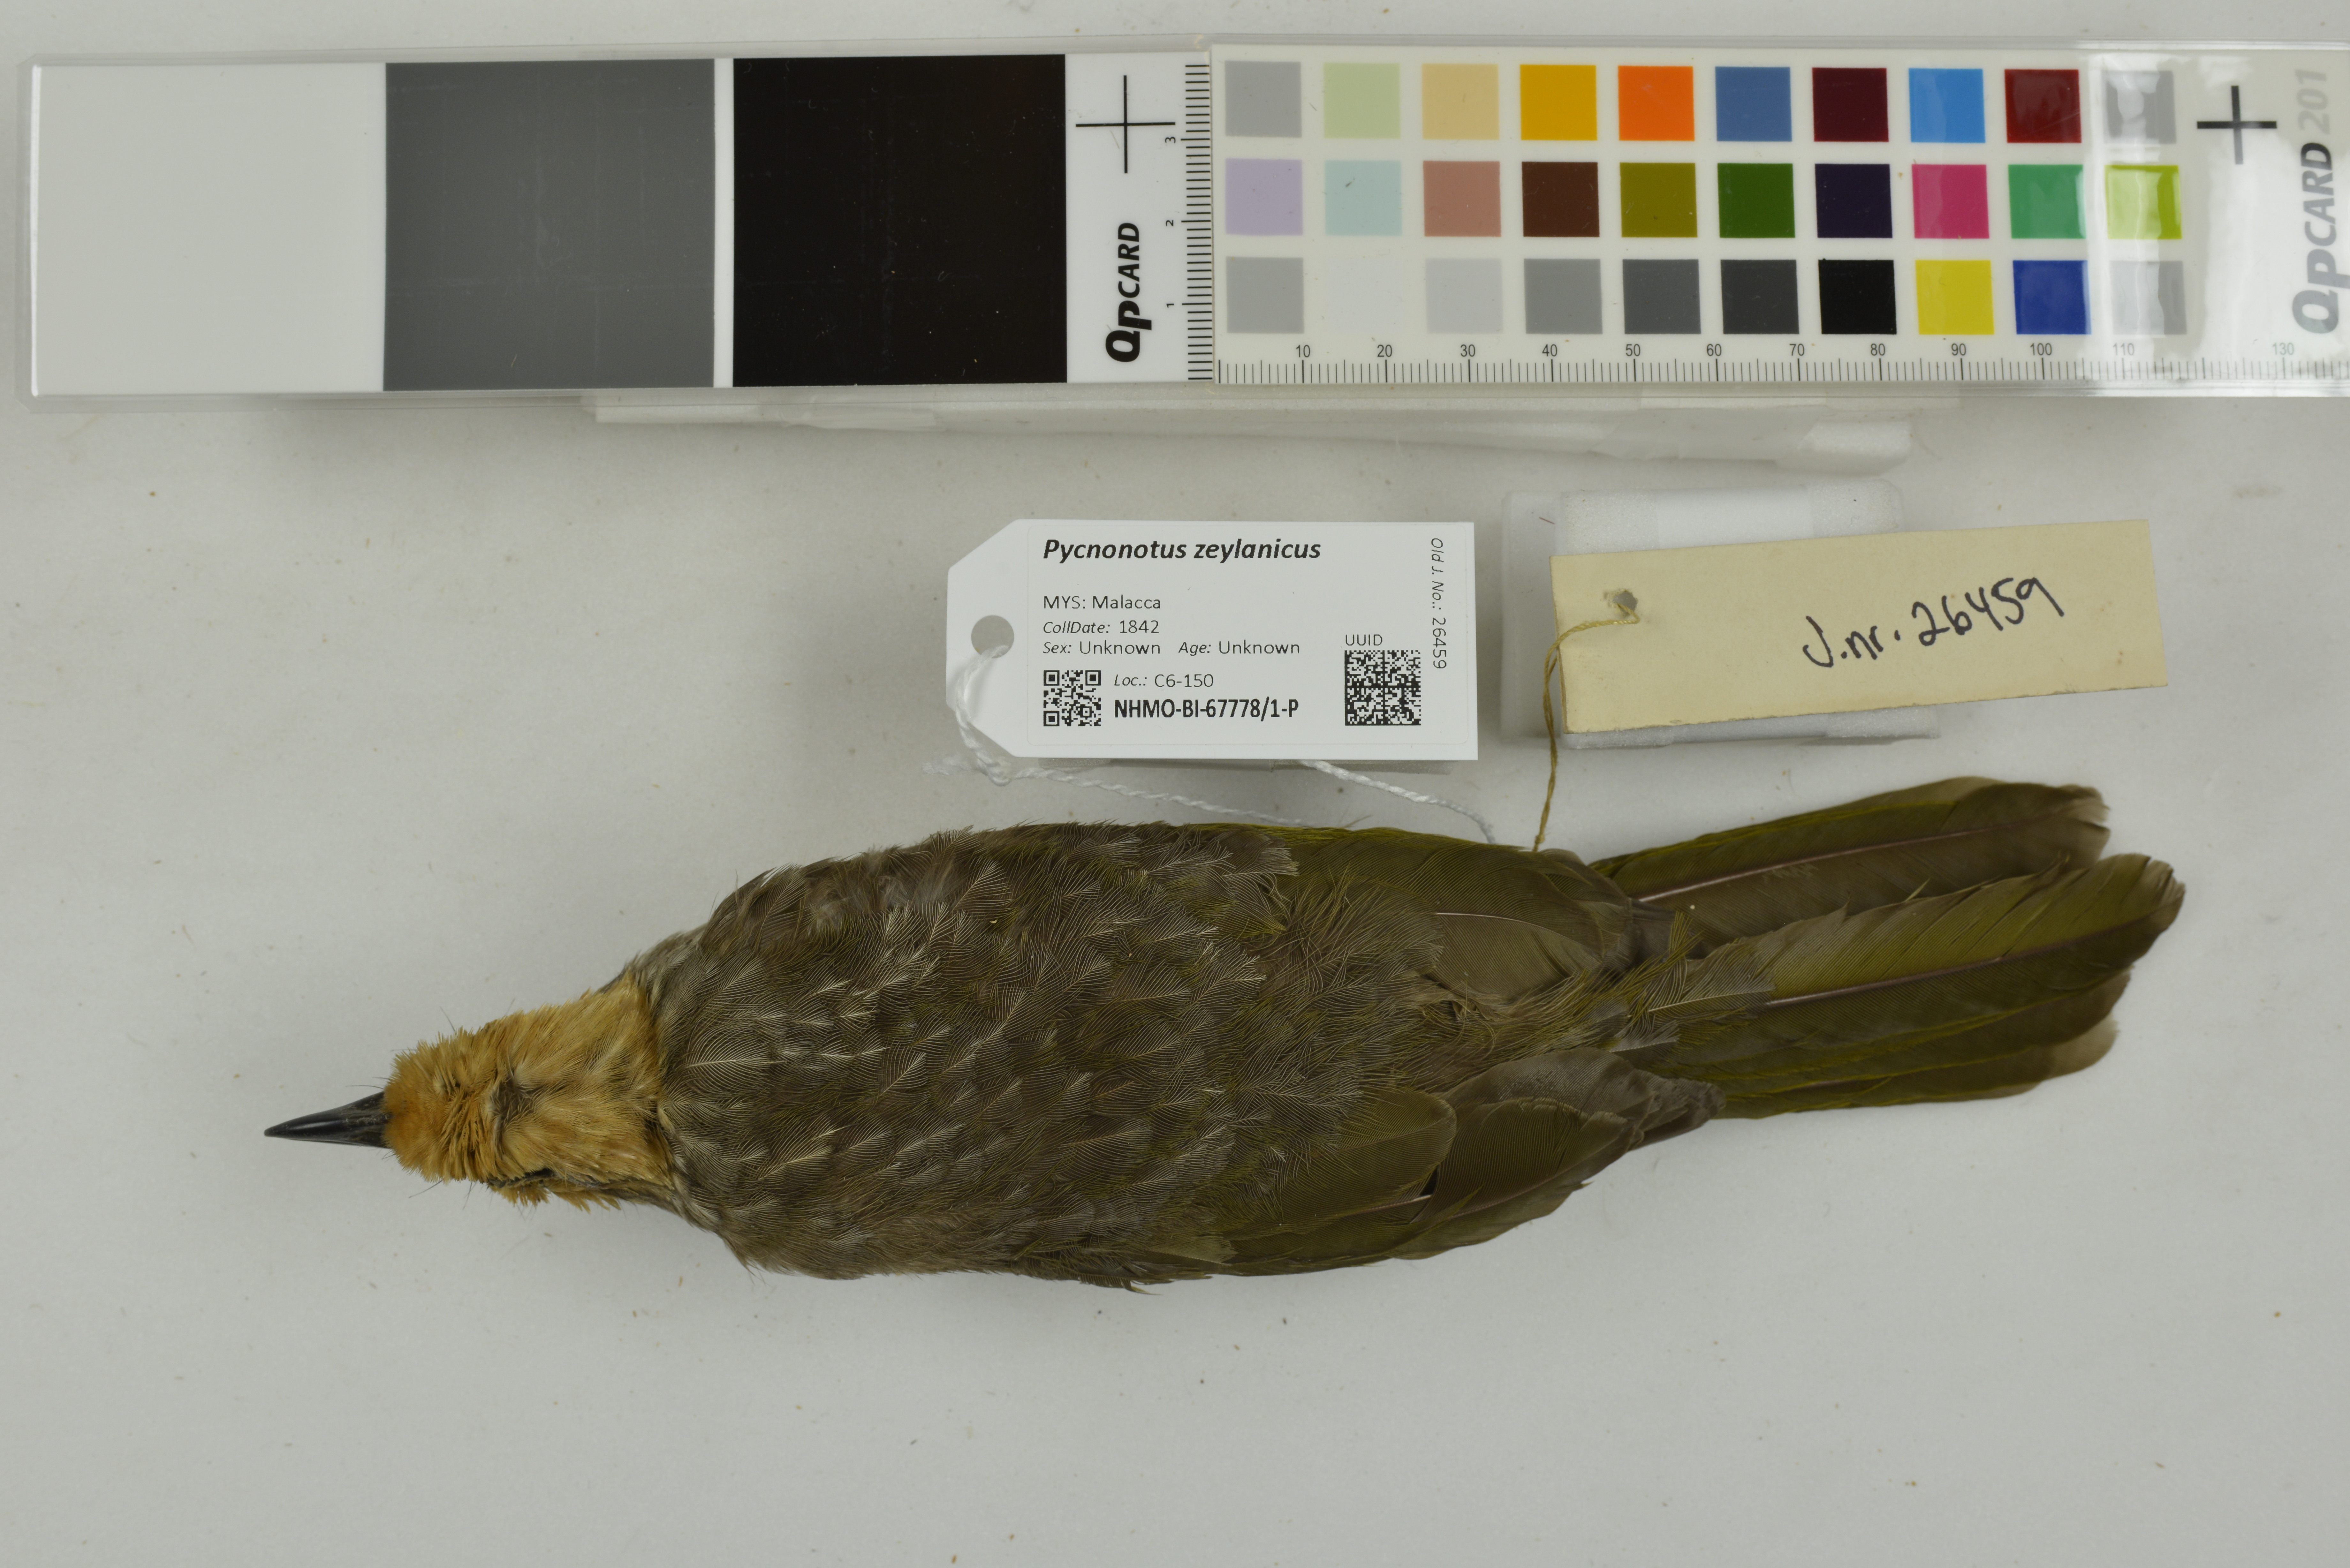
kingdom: Animalia
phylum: Chordata
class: Aves
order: Passeriformes
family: Pycnonotidae
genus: Pycnonotus
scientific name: Pycnonotus zeylanicus
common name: Straw-headed bulbul
